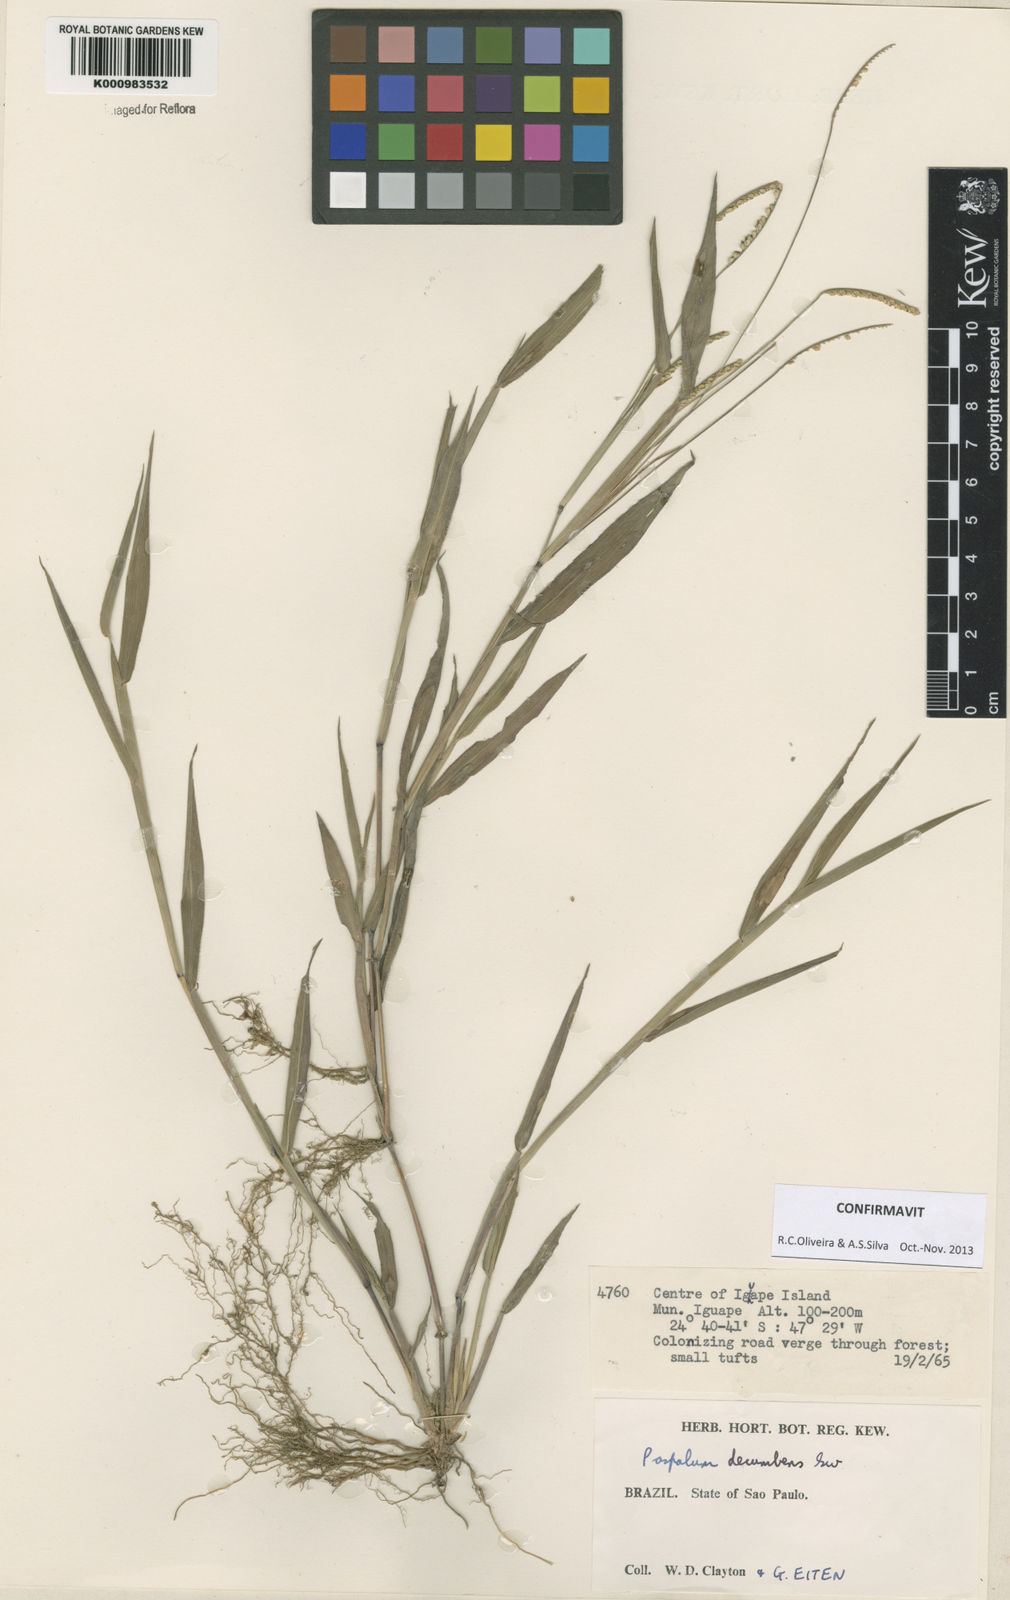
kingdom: Plantae
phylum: Tracheophyta
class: Liliopsida
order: Poales
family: Poaceae
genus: Paspalum
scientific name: Paspalum decumbens
